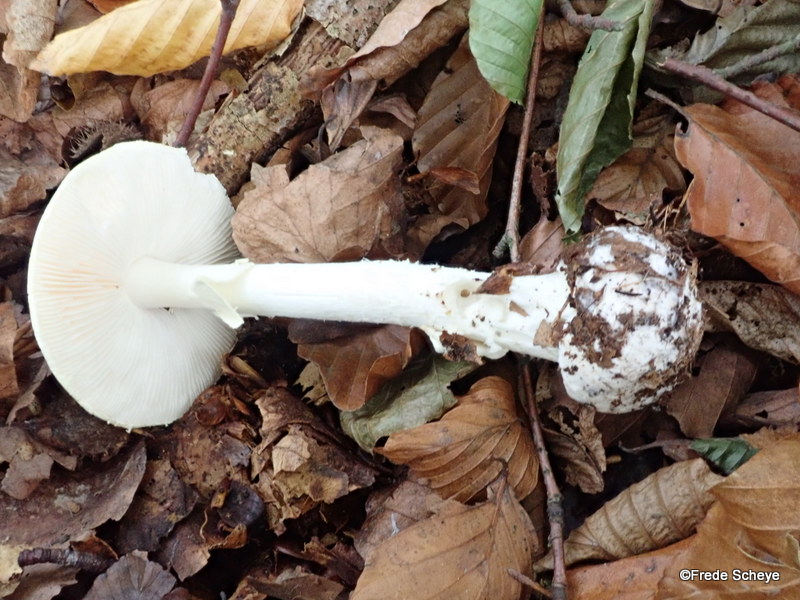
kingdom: Fungi
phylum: Basidiomycota
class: Agaricomycetes
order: Agaricales
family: Amanitaceae
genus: Amanita
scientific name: Amanita citrina
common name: kugleknoldet fluesvamp
